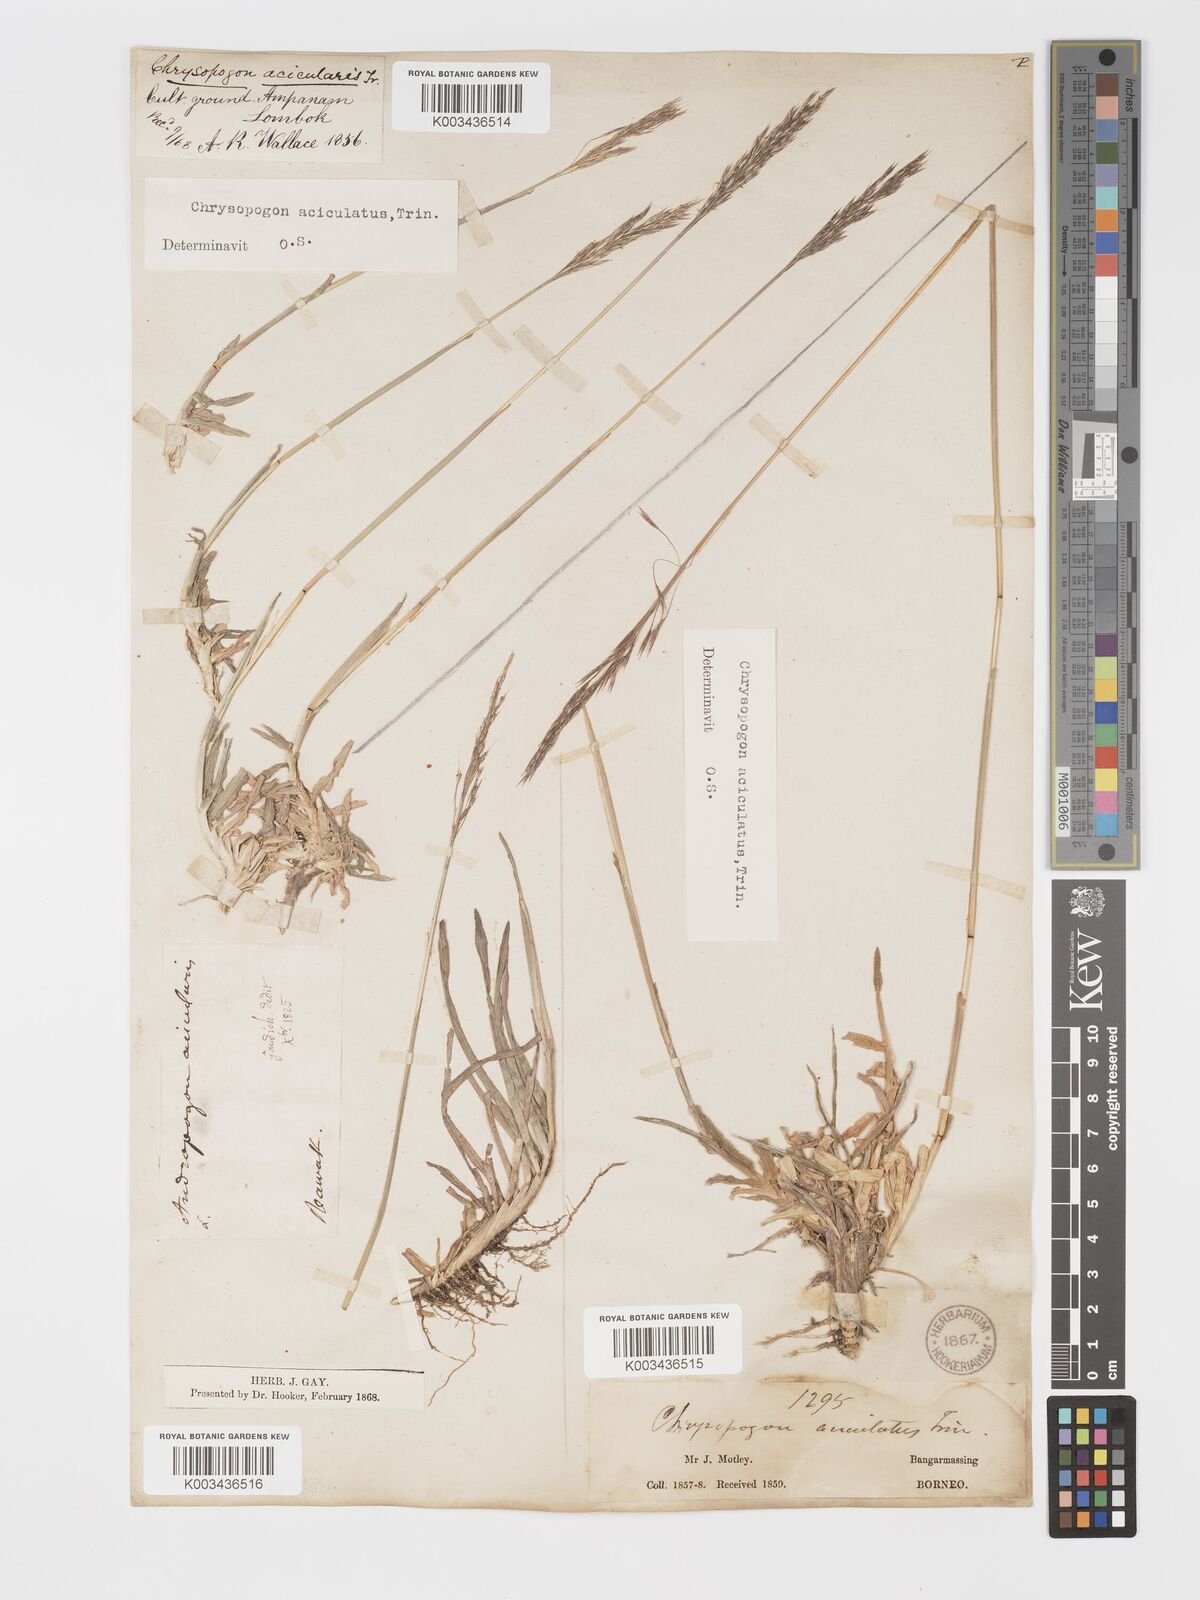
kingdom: Plantae
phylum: Tracheophyta
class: Liliopsida
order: Poales
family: Poaceae
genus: Chrysopogon
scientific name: Chrysopogon aciculatus
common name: Pilipiliula
